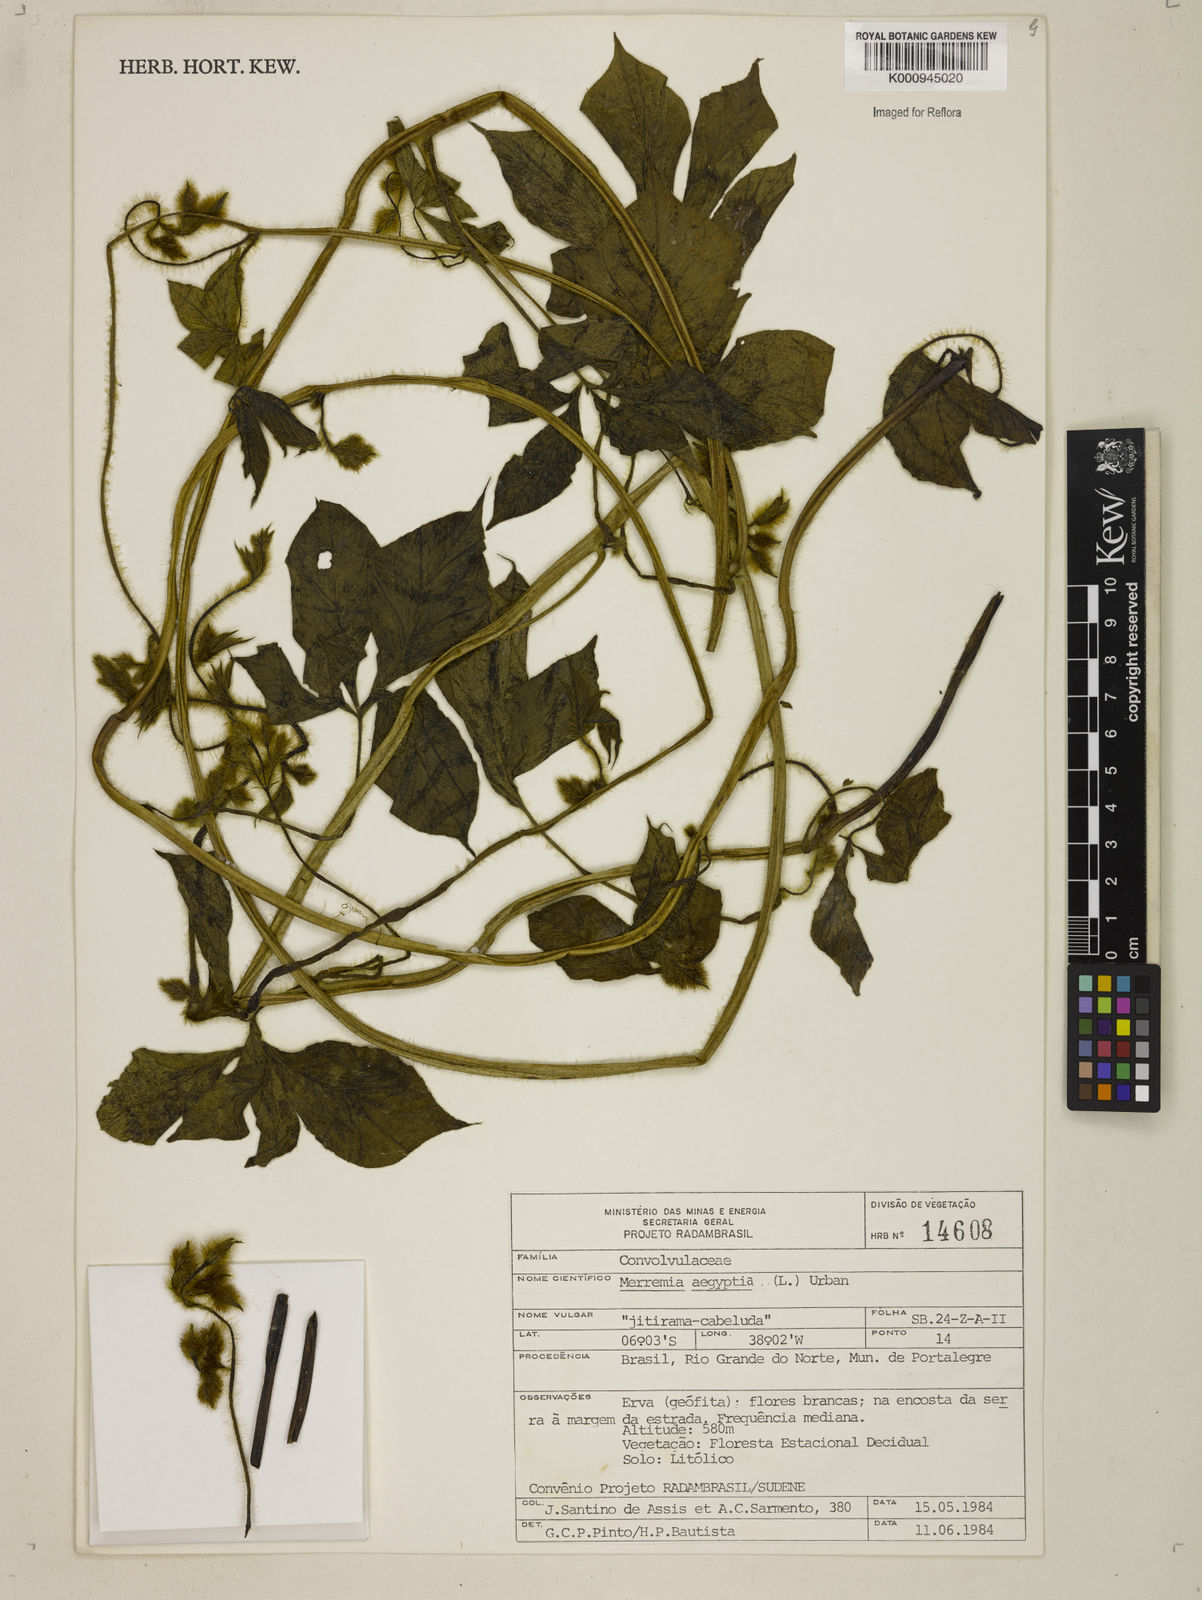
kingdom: Plantae
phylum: Tracheophyta
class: Magnoliopsida
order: Solanales
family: Convolvulaceae
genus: Distimake
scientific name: Distimake aegyptius
